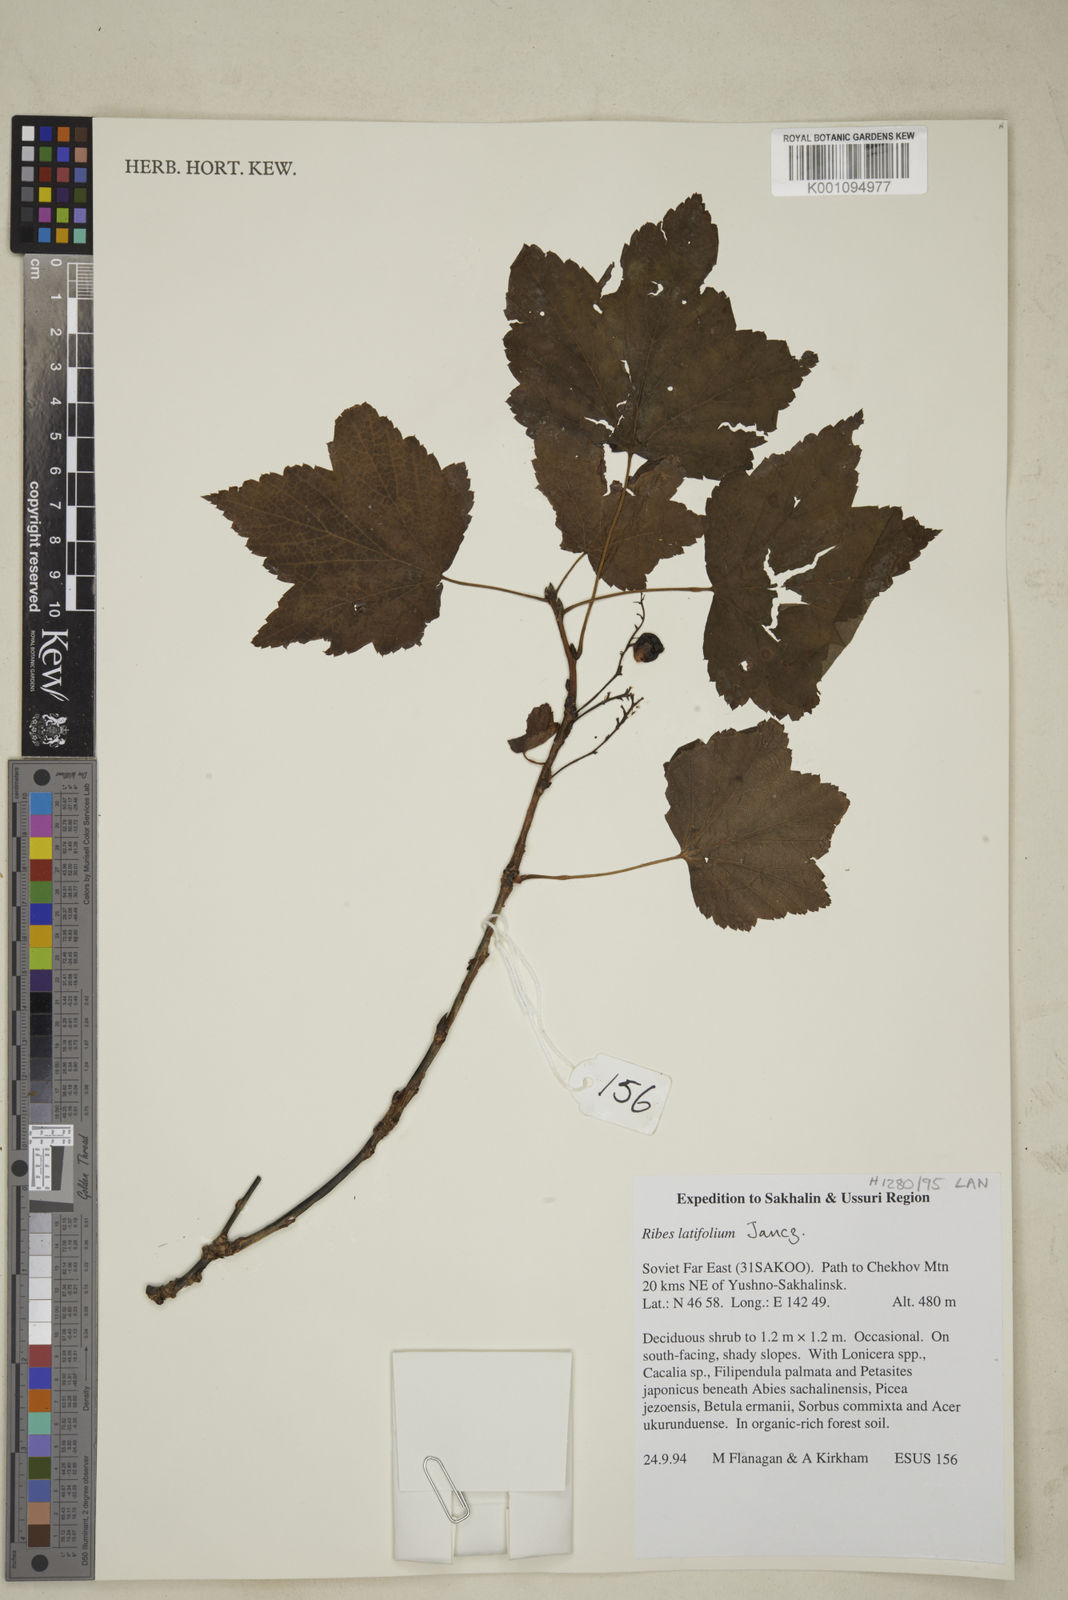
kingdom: Plantae
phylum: Tracheophyta
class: Magnoliopsida
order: Saxifragales
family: Grossulariaceae
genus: Ribes
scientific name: Ribes latifolium
